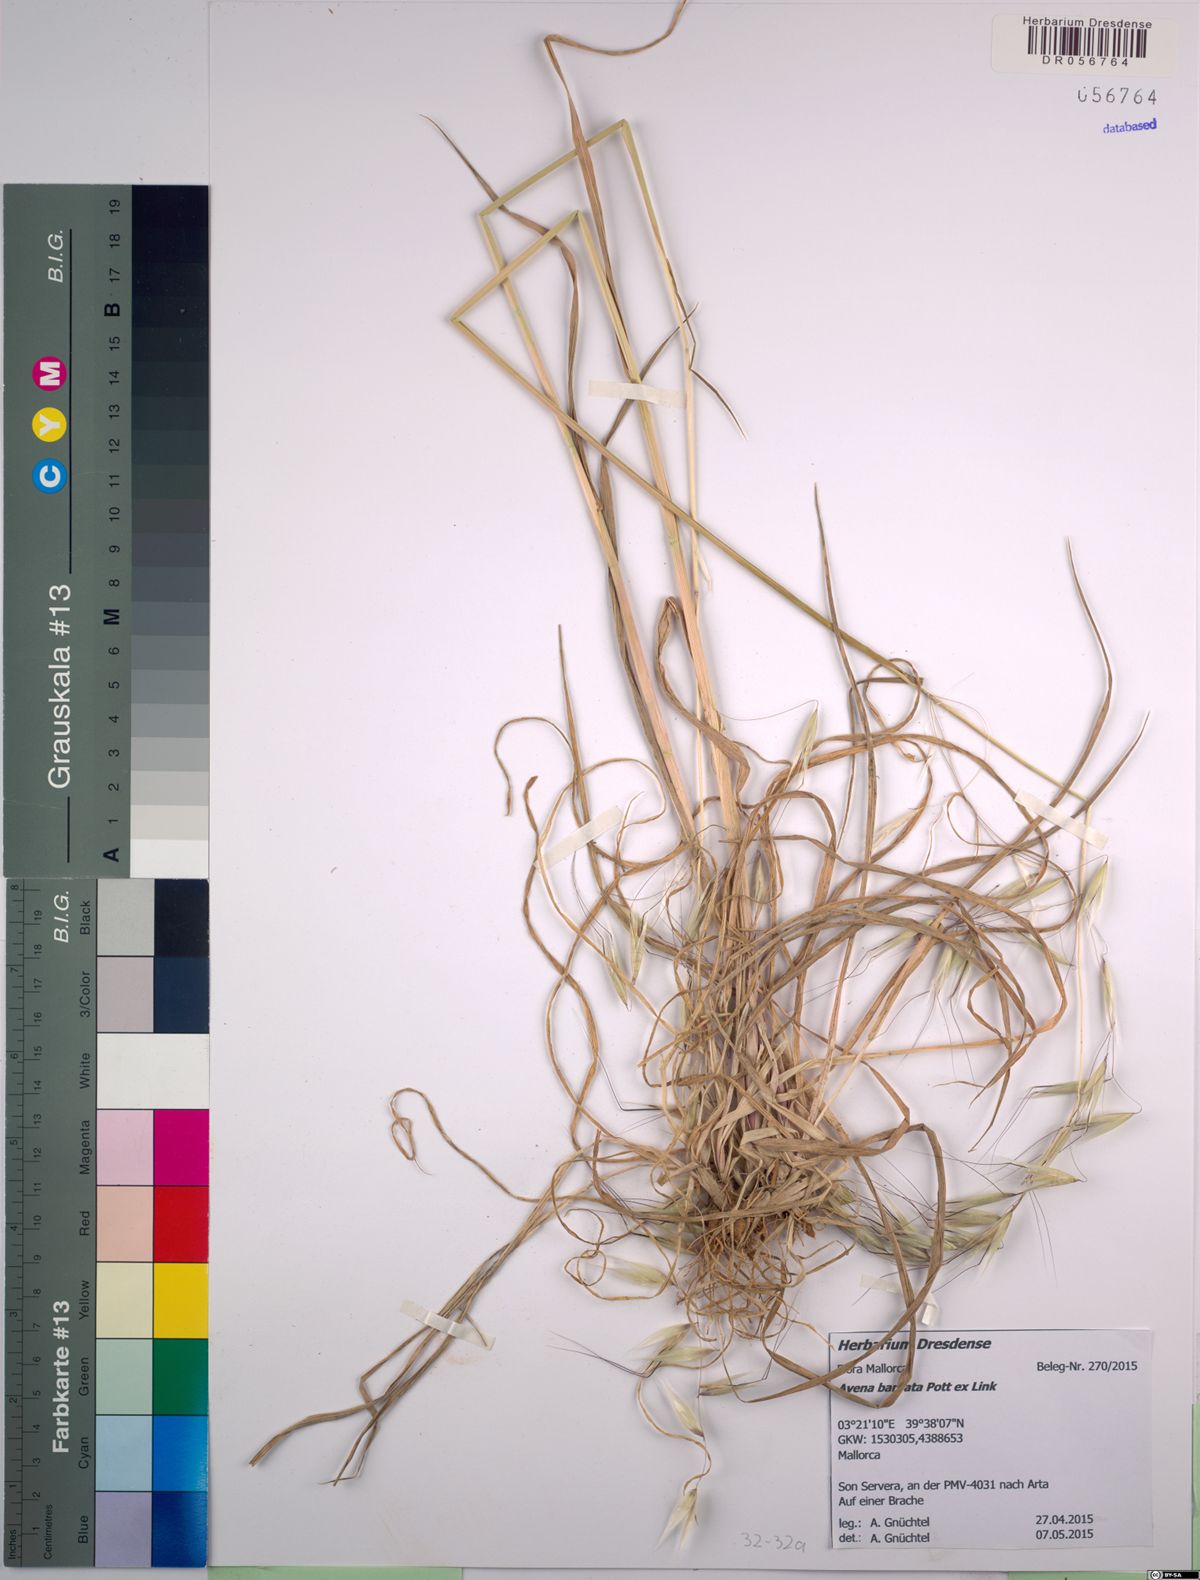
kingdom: Plantae
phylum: Tracheophyta
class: Liliopsida
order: Poales
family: Poaceae
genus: Avena
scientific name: Avena barbata
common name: Slender oat
